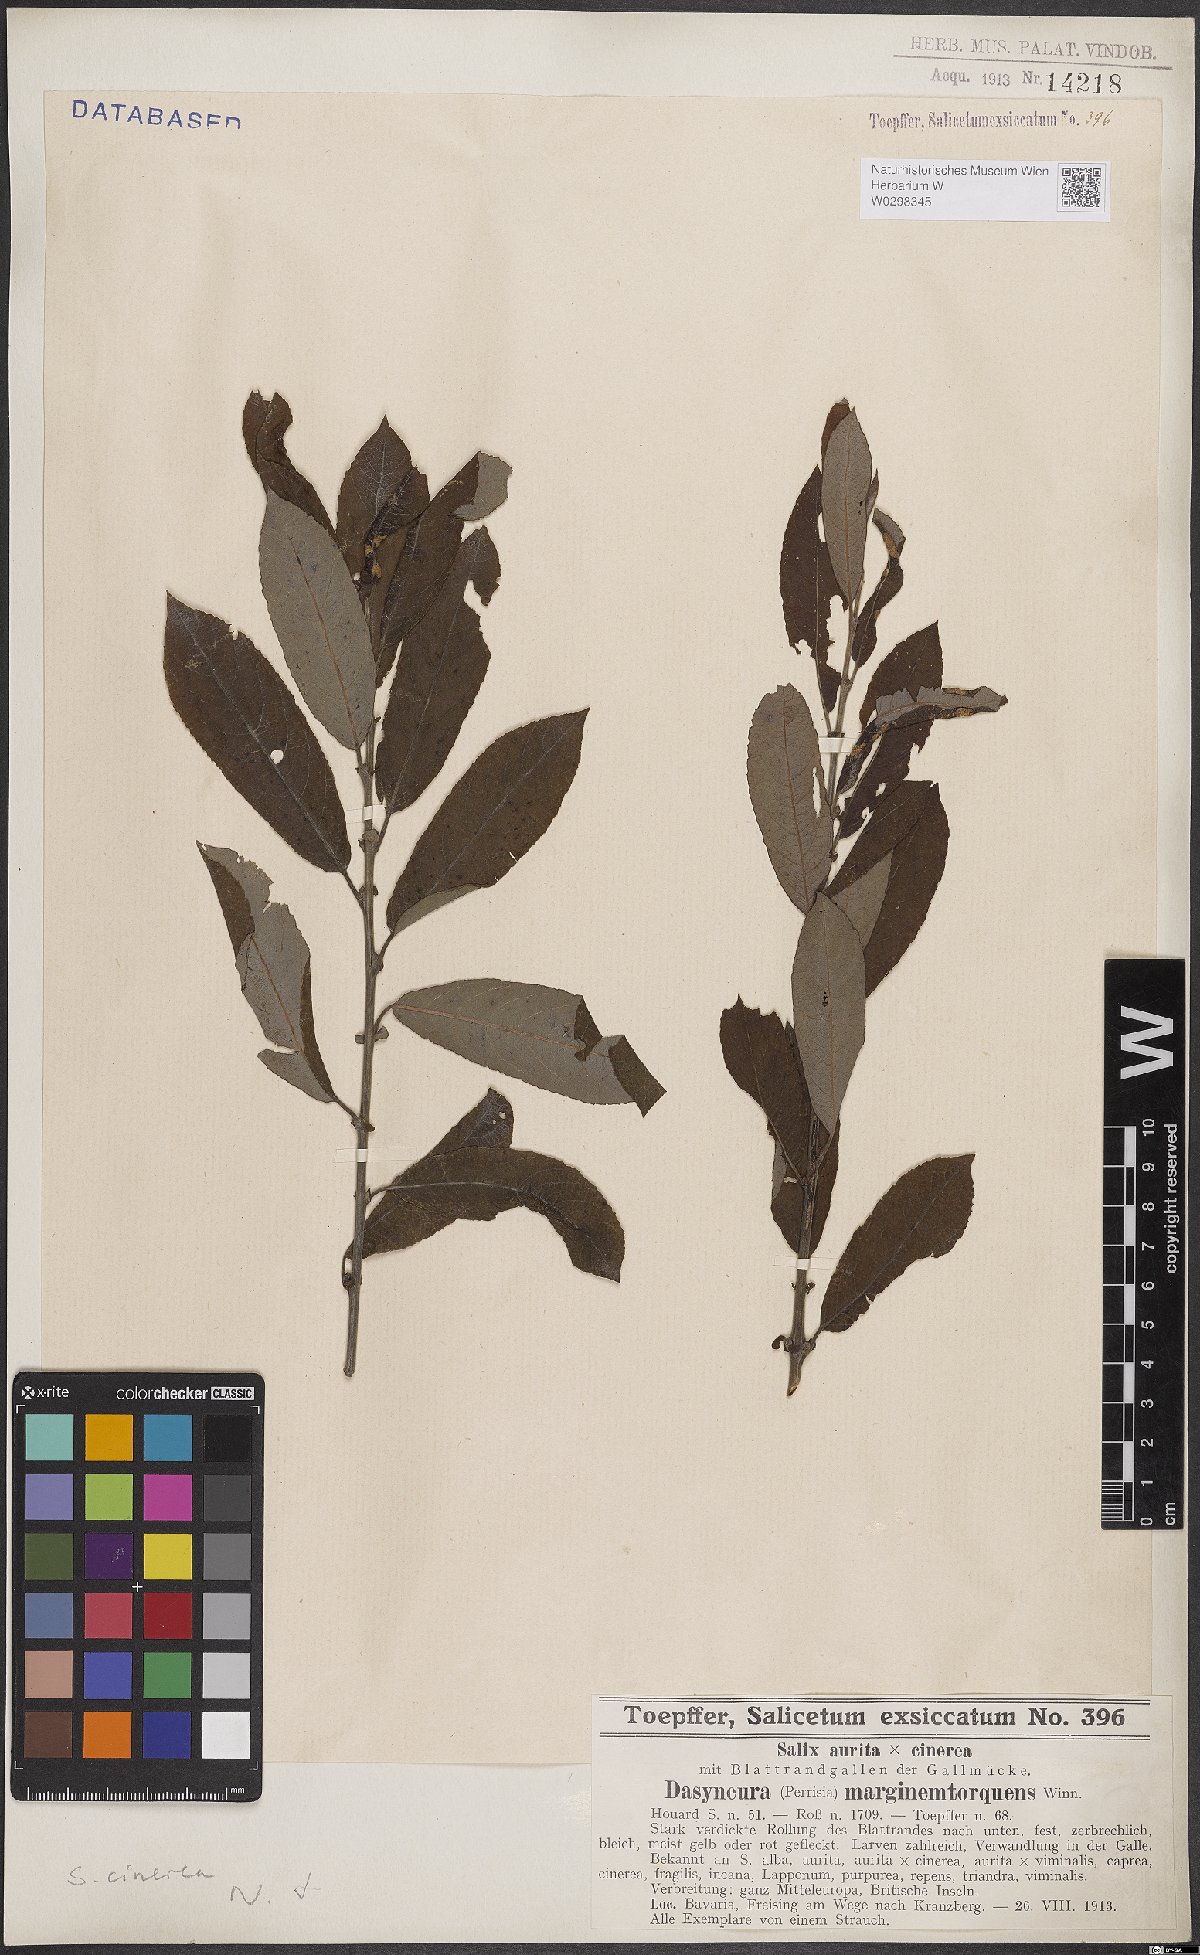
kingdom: Plantae
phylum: Tracheophyta
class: Magnoliopsida
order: Malpighiales
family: Salicaceae
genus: Salix
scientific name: Salix cinerea
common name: Common sallow
